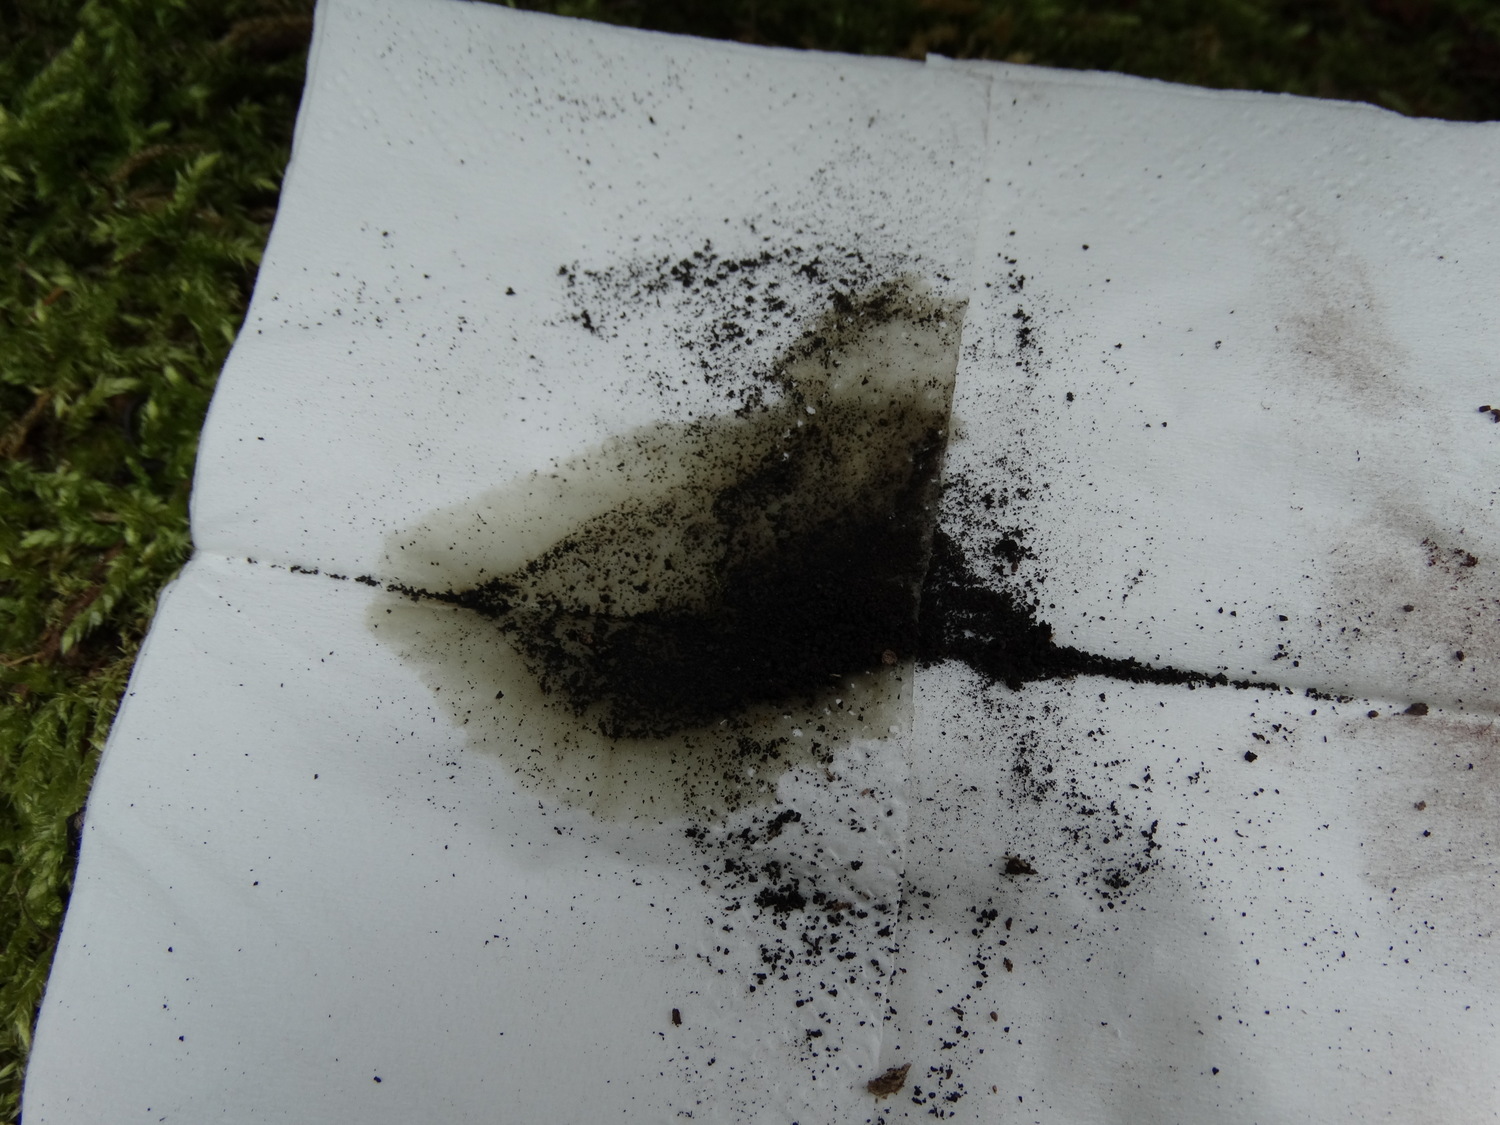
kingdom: Fungi
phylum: Ascomycota
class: Sordariomycetes
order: Xylariales
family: Hypoxylaceae
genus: Hypoxylon
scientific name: Hypoxylon macrocarpum
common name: skorpe-kulbær
